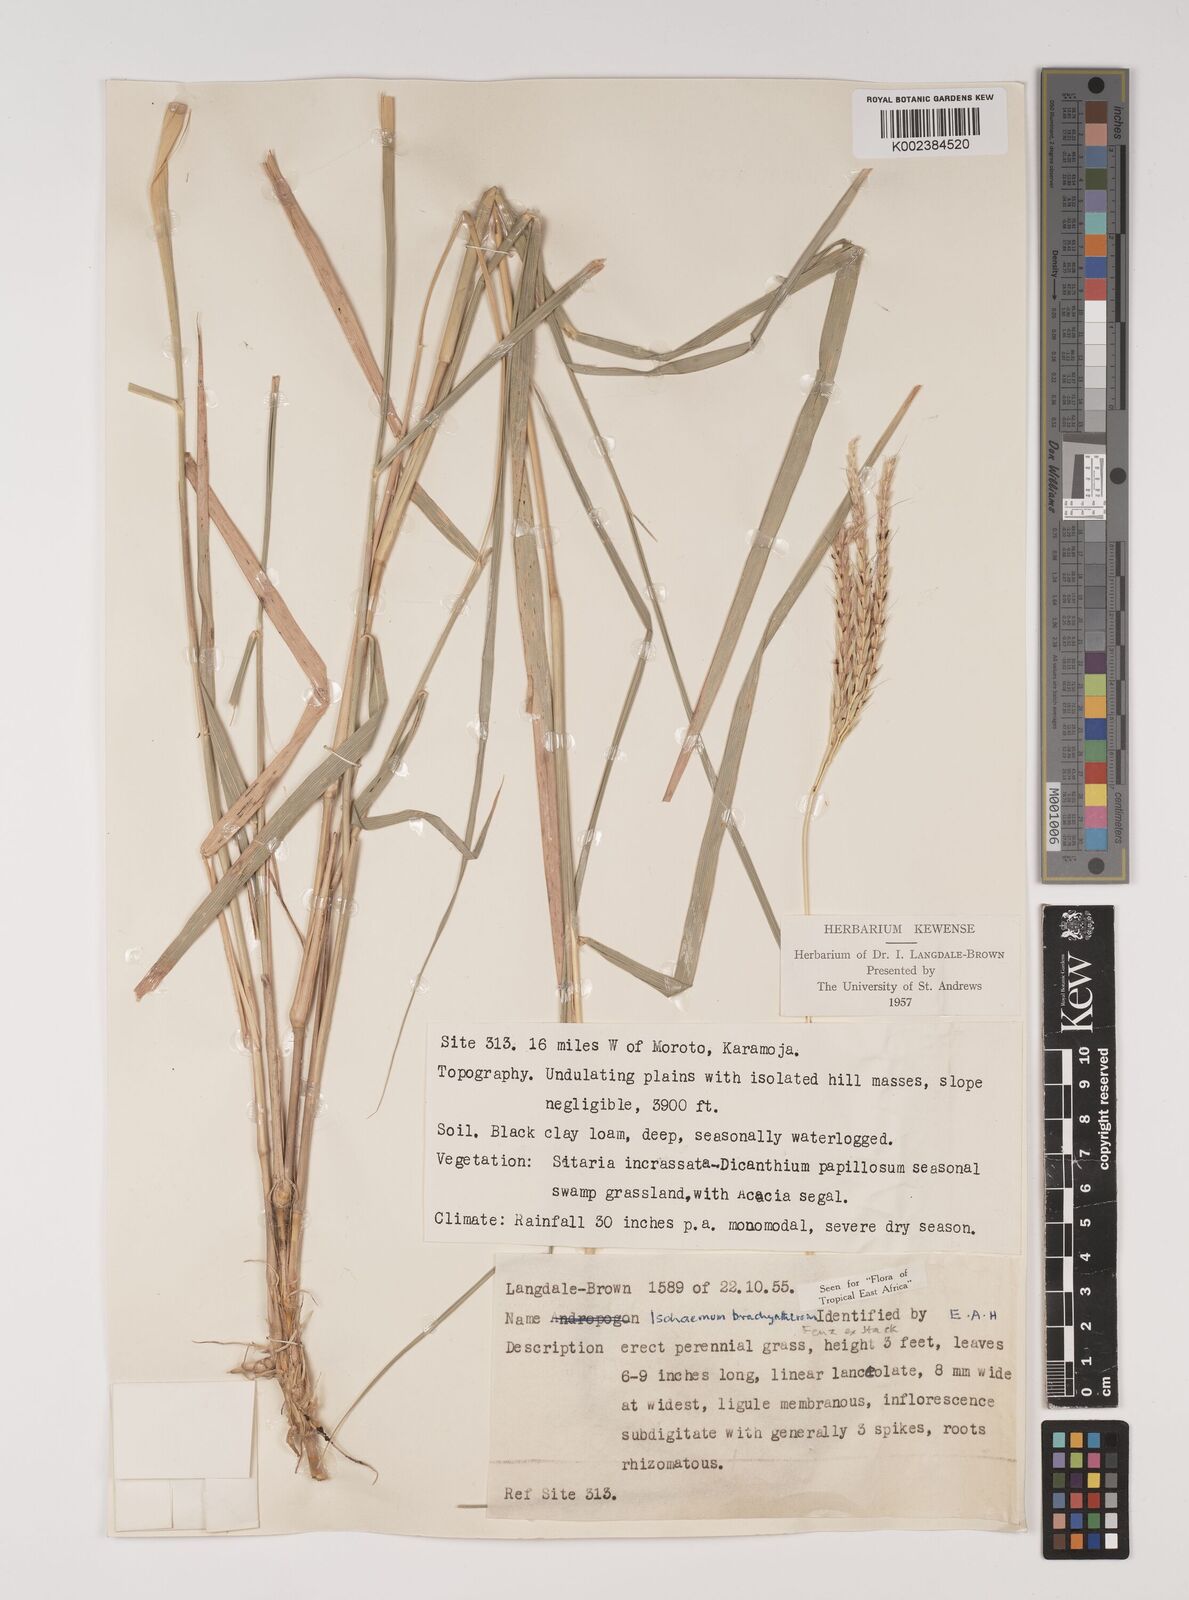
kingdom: Plantae
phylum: Tracheophyta
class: Liliopsida
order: Poales
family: Poaceae
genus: Ischaemum
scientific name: Ischaemum afrum
